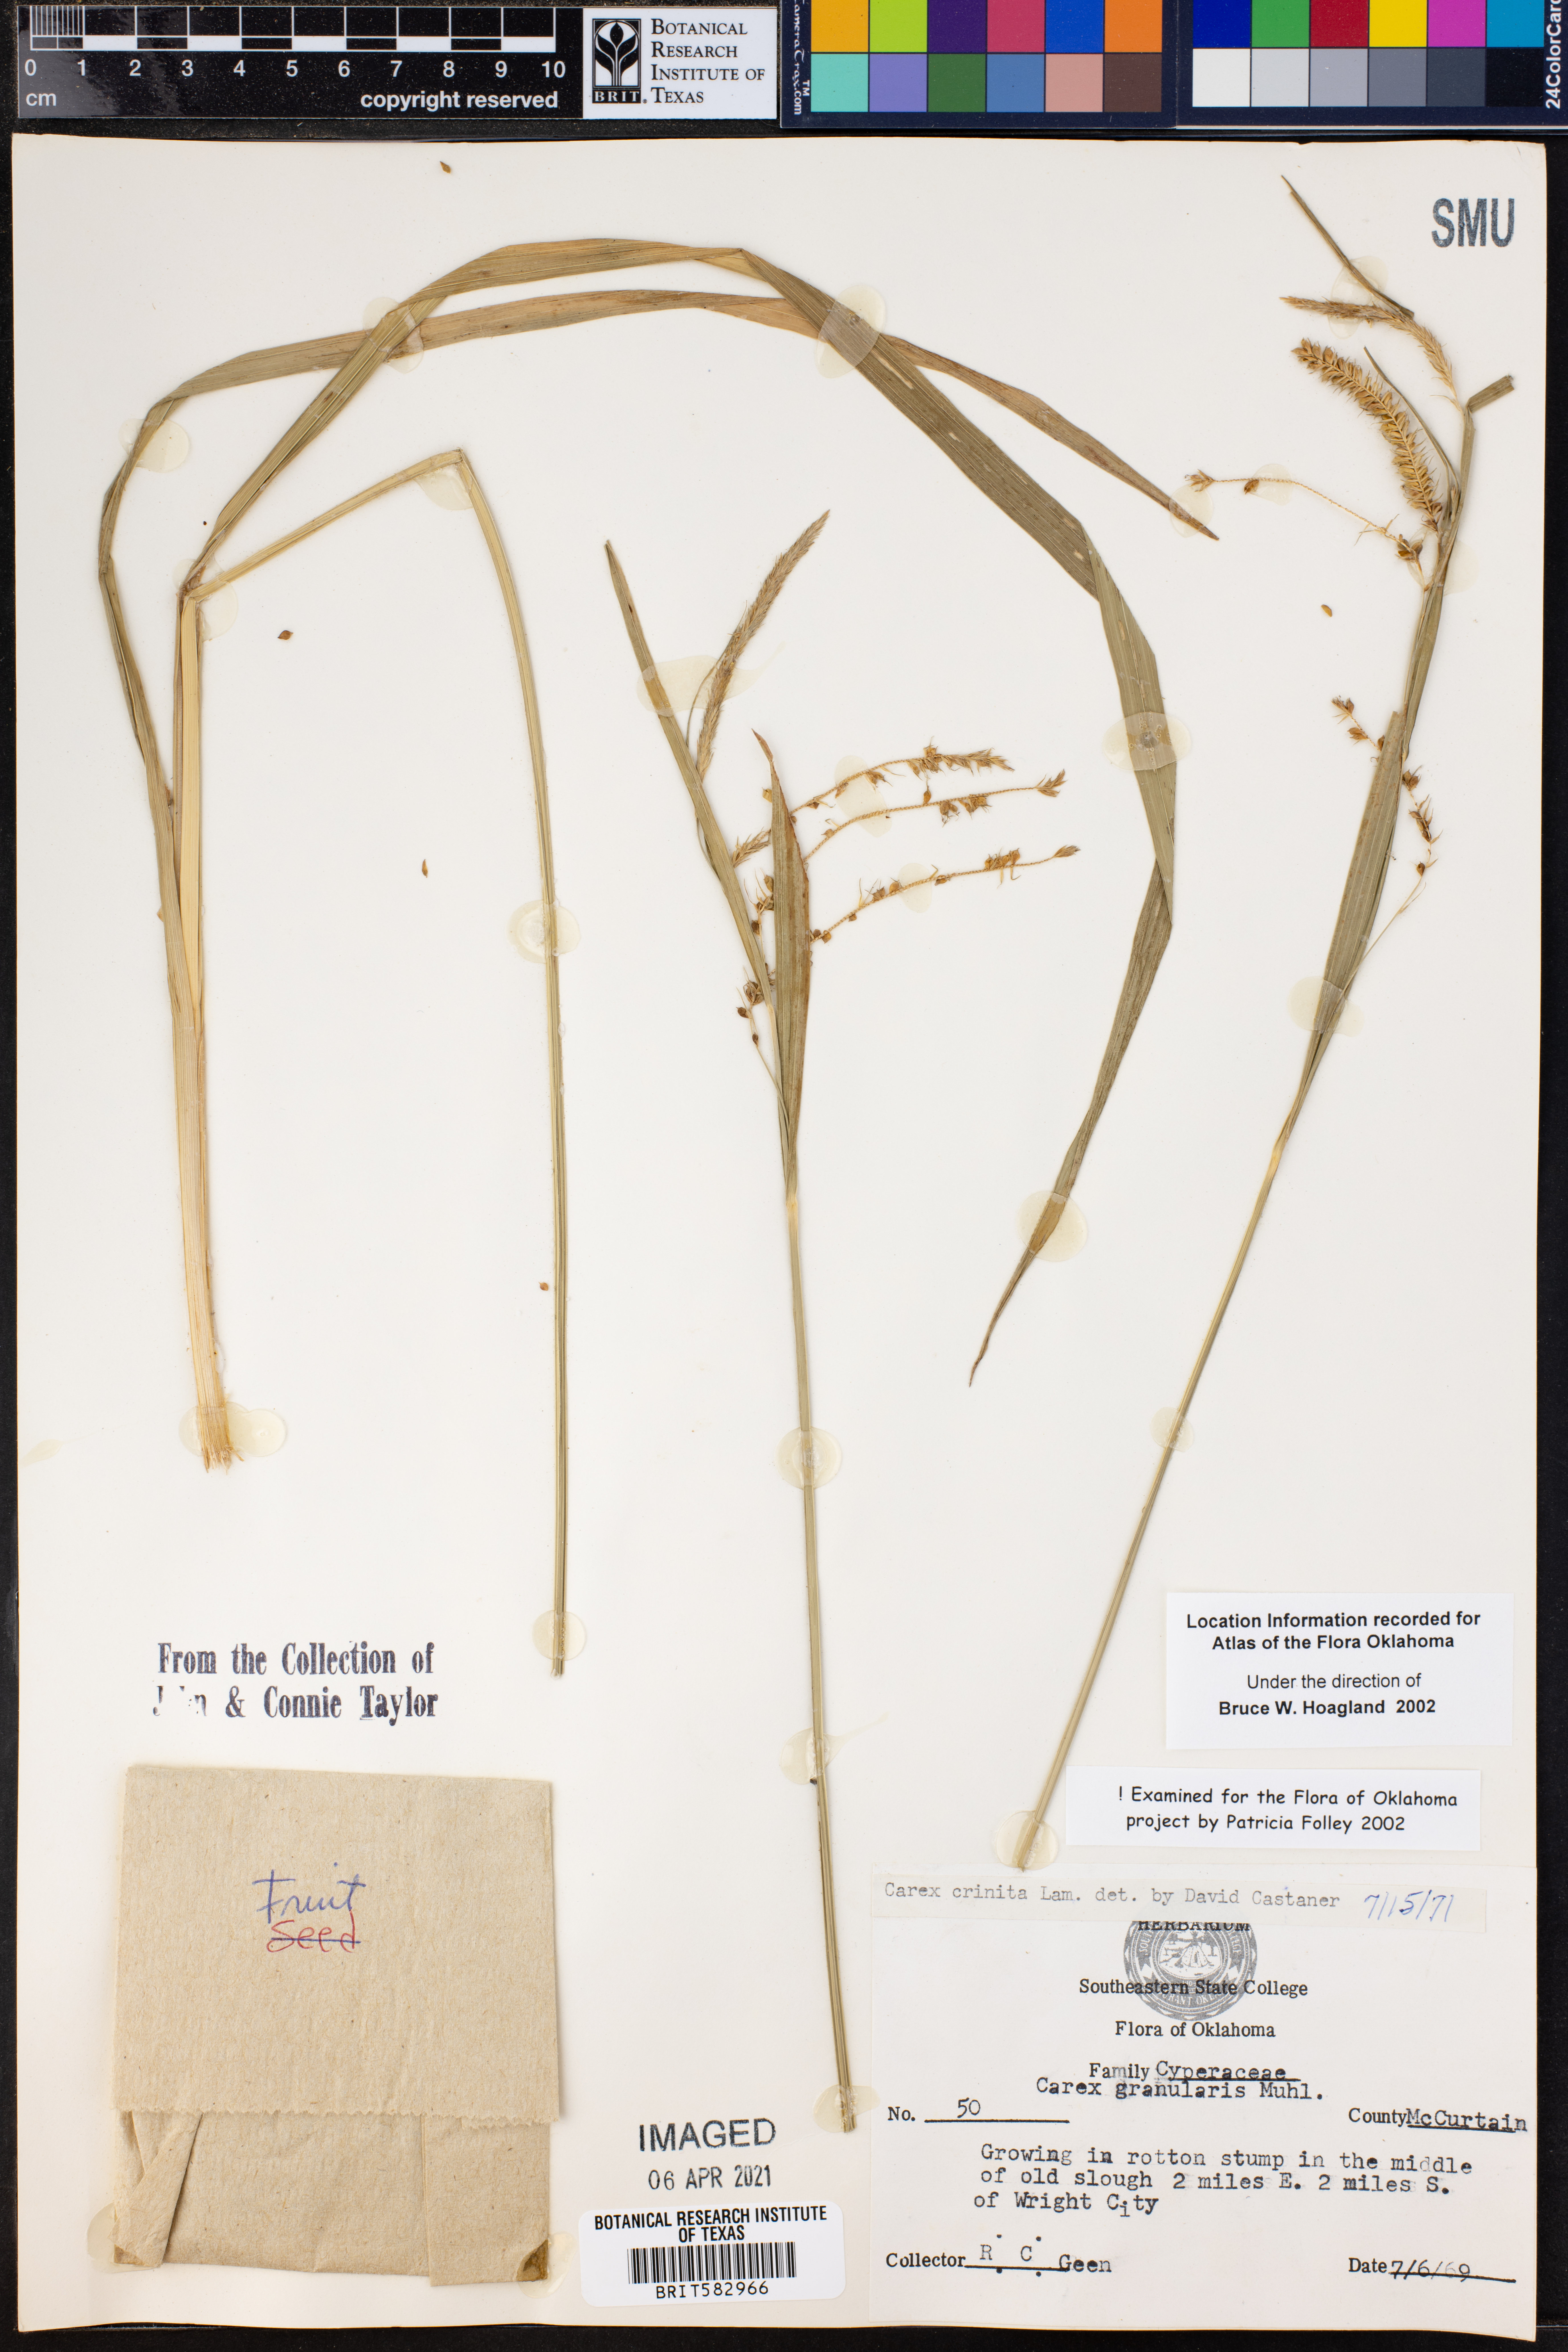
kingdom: Plantae
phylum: Tracheophyta
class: Liliopsida
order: Poales
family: Cyperaceae
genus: Carex
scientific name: Carex crinita
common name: Fringed sedge
